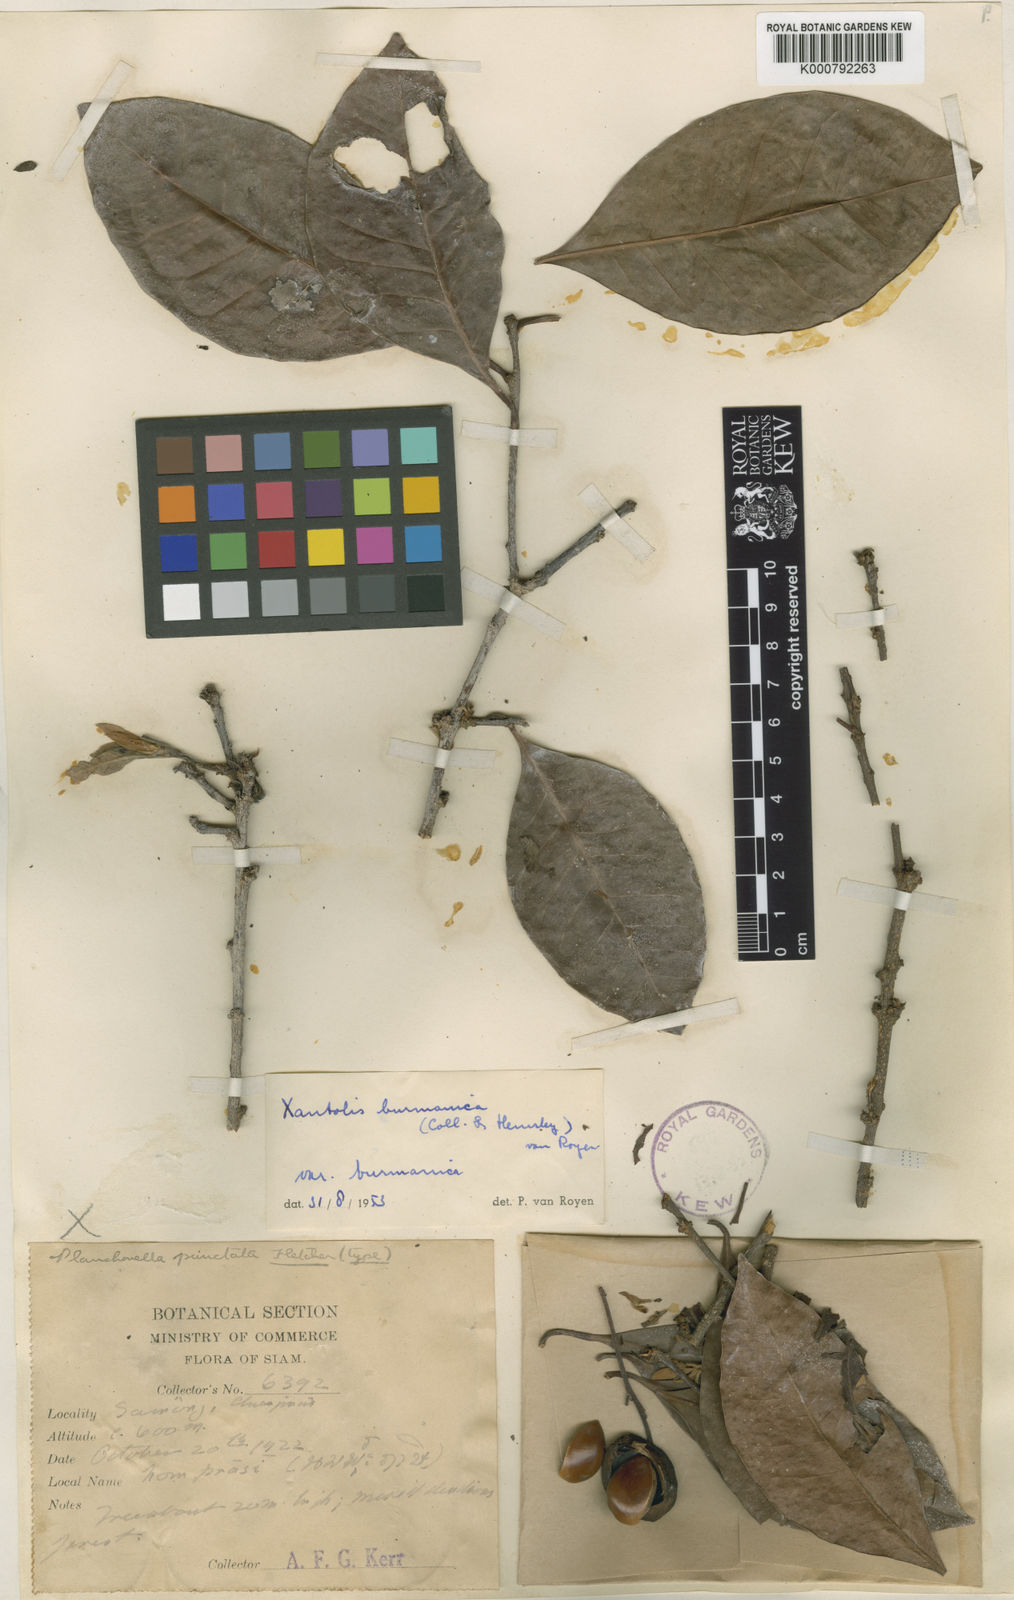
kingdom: Plantae
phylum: Tracheophyta
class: Magnoliopsida
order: Ericales
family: Sapotaceae
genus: Xantolis
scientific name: Xantolis burmanica
